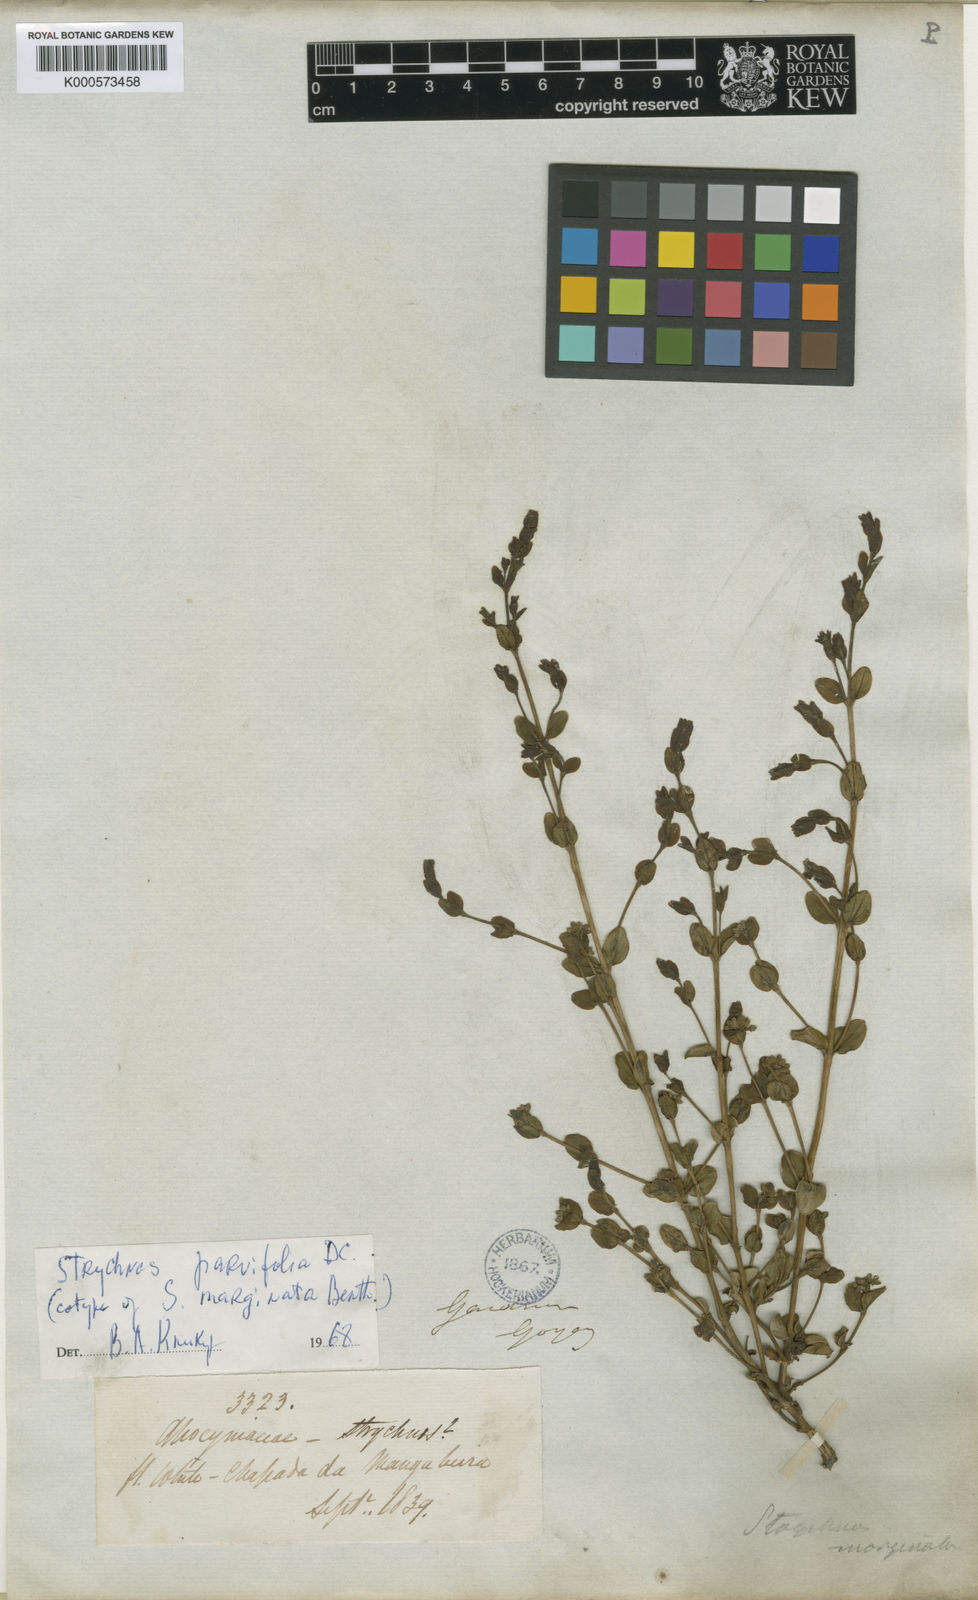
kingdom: Plantae
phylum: Tracheophyta
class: Magnoliopsida
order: Gentianales
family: Loganiaceae
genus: Strychnos
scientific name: Strychnos parvifolia
